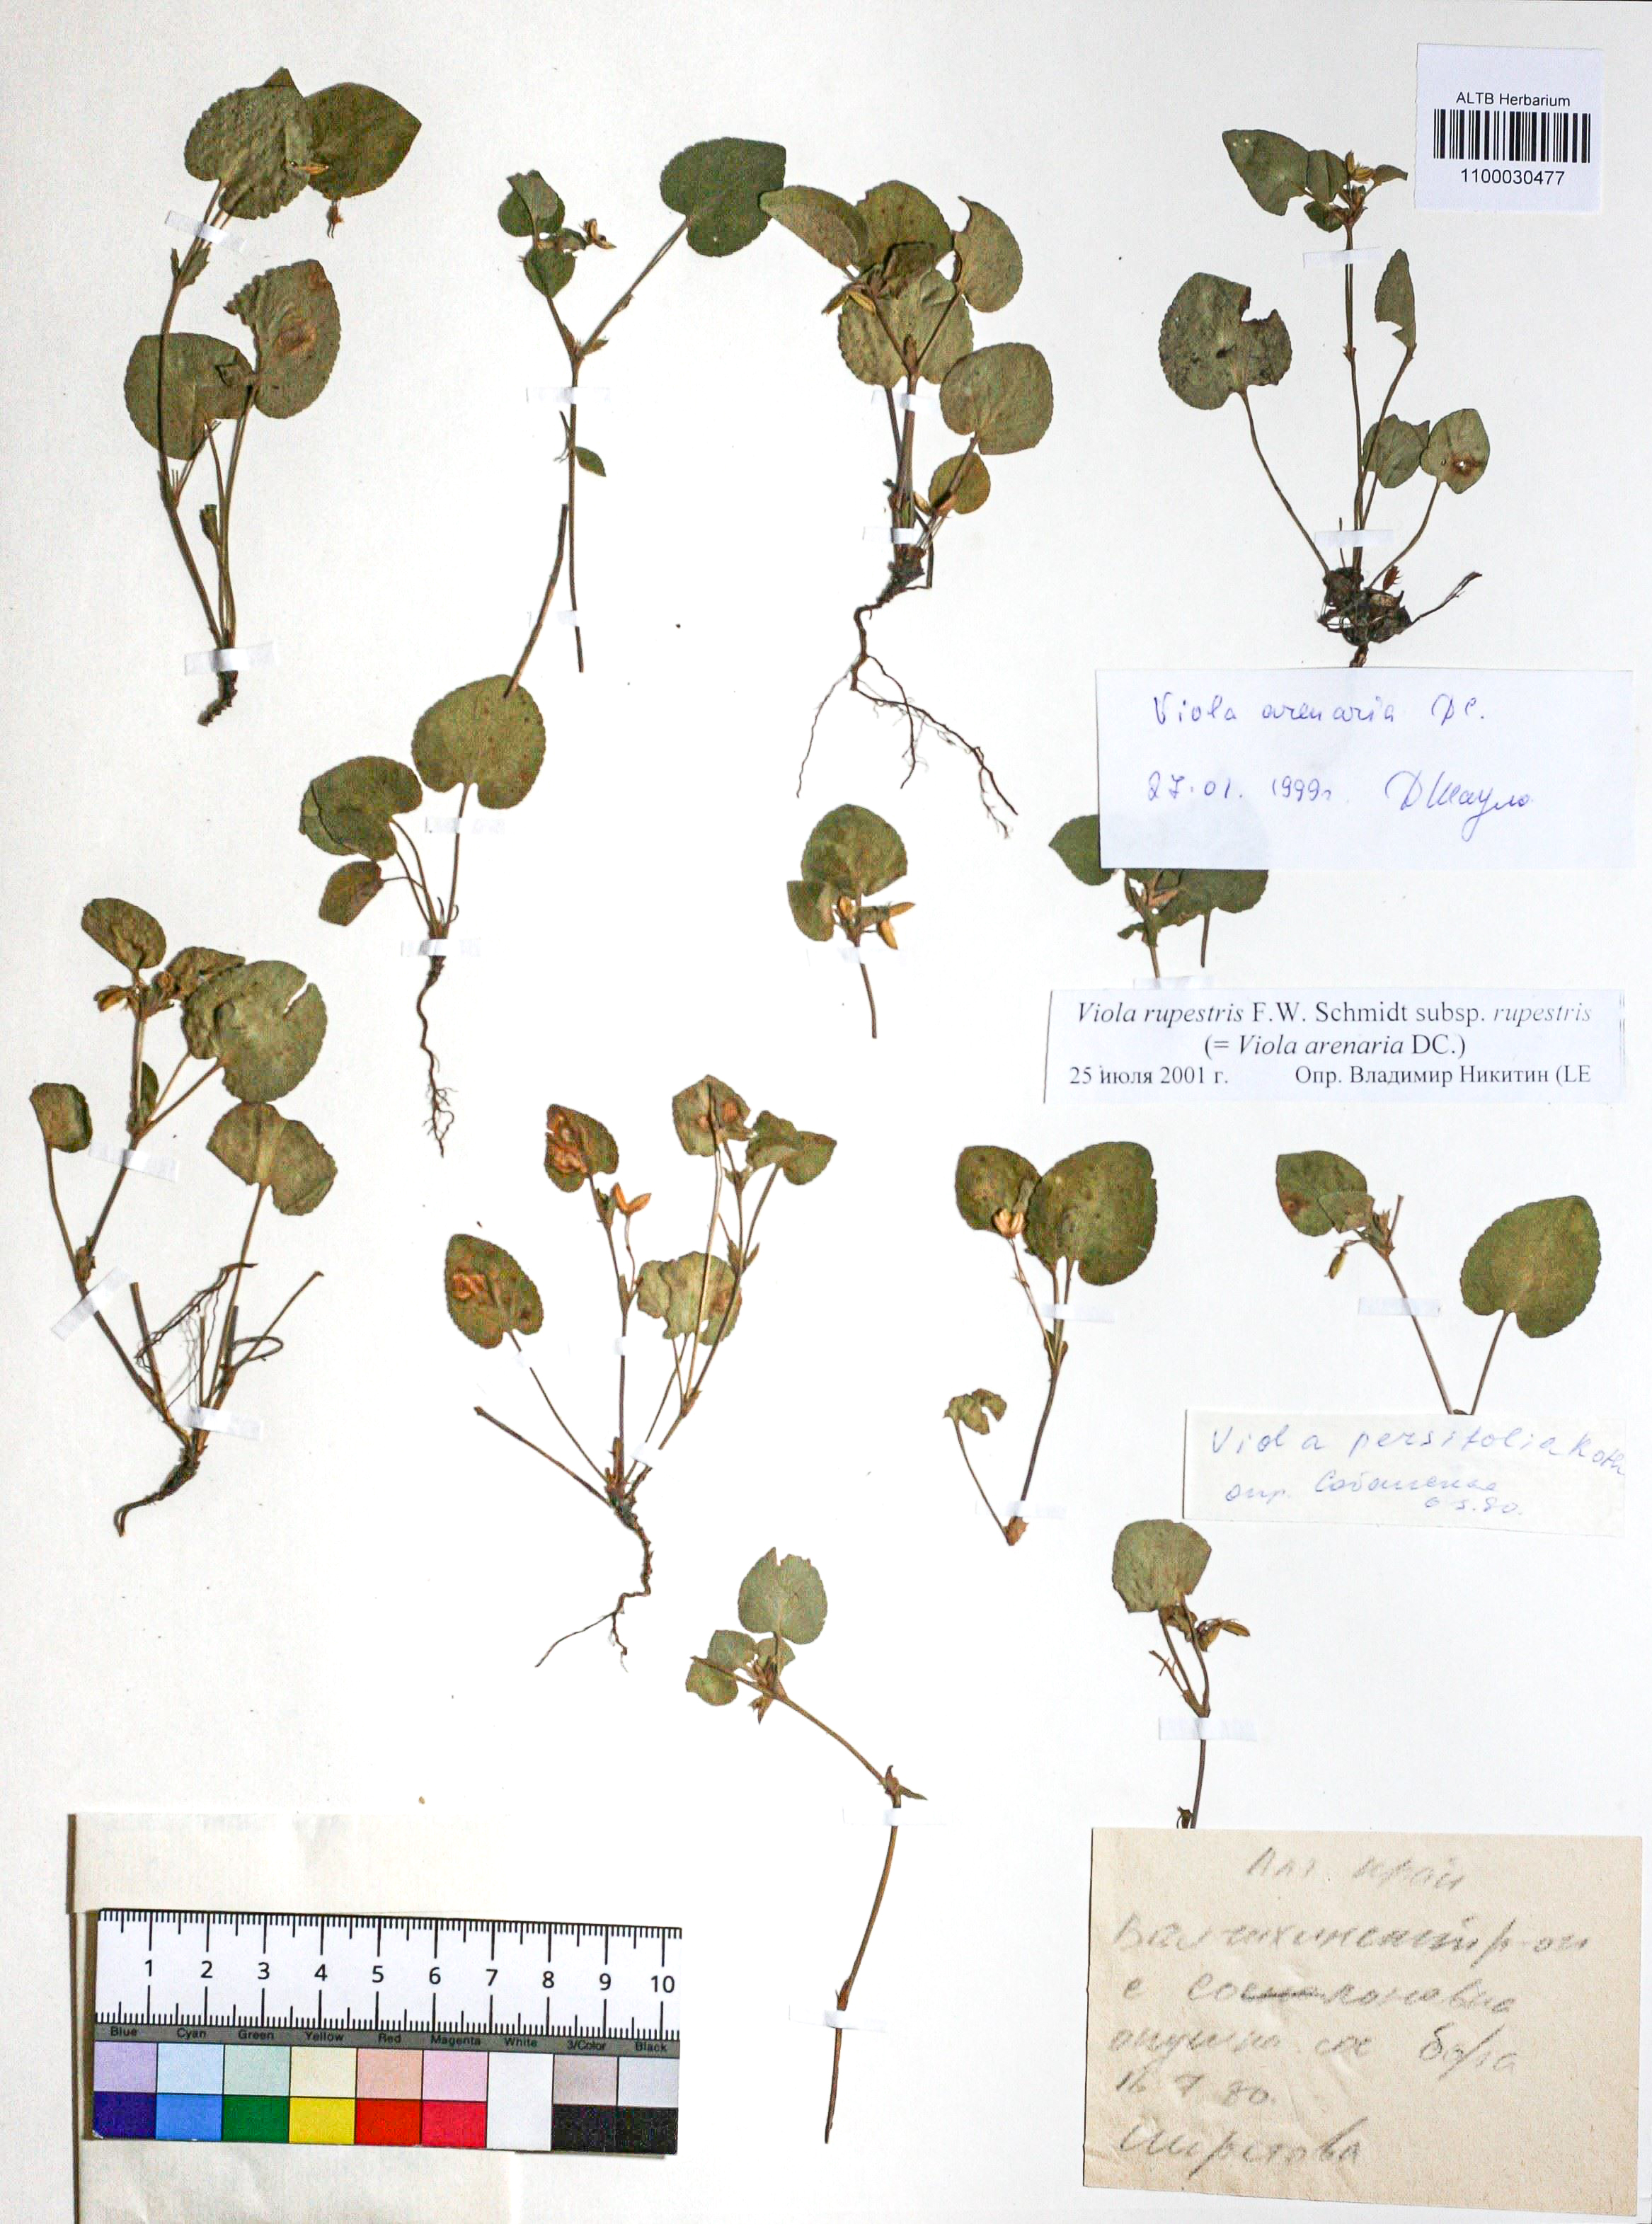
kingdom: Plantae
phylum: Tracheophyta
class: Magnoliopsida
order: Malpighiales
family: Violaceae
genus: Viola
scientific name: Viola rupestris
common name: Teesdale violet
